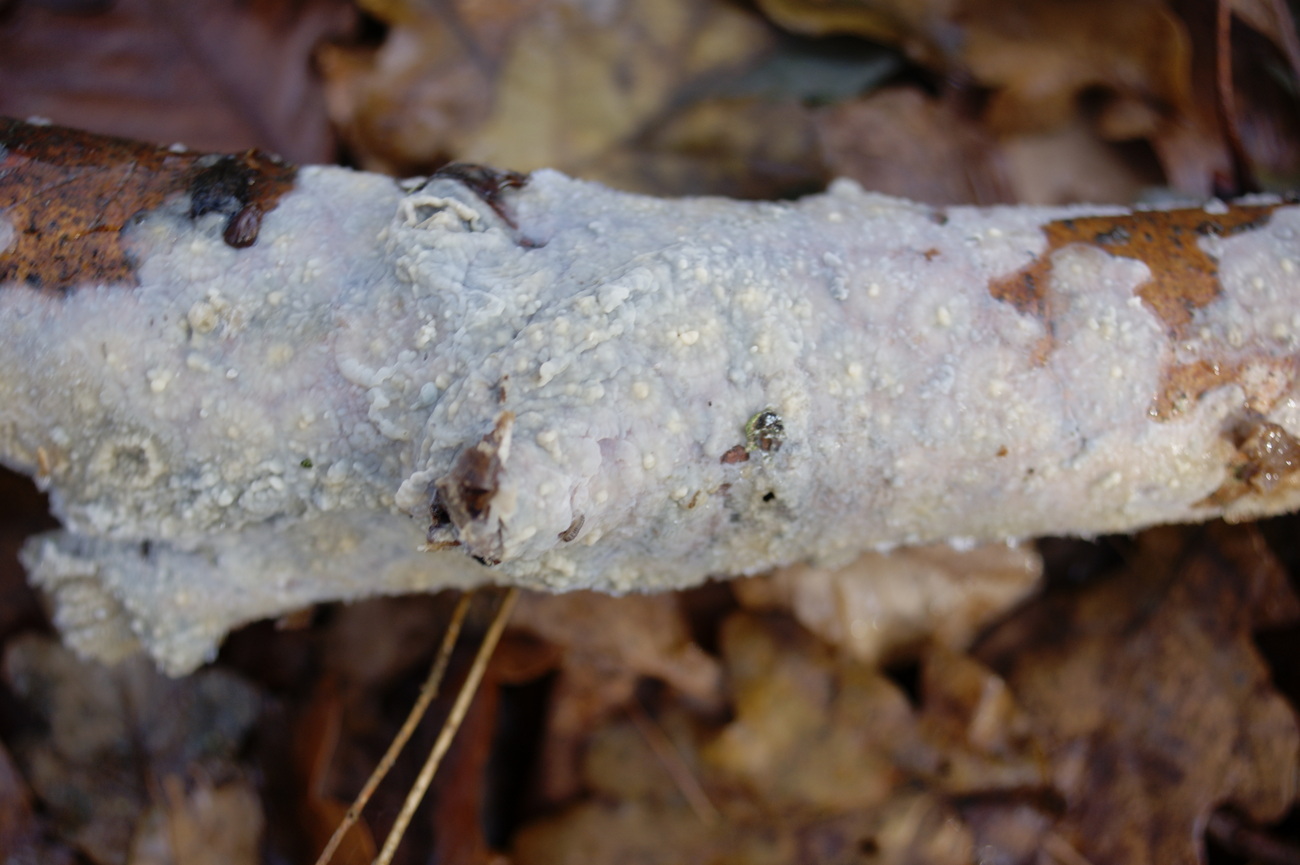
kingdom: Fungi
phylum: Basidiomycota
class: Agaricomycetes
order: Agaricales
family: Radulomycetaceae
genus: Radulomyces
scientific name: Radulomyces confluens
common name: glat naftalinskind
